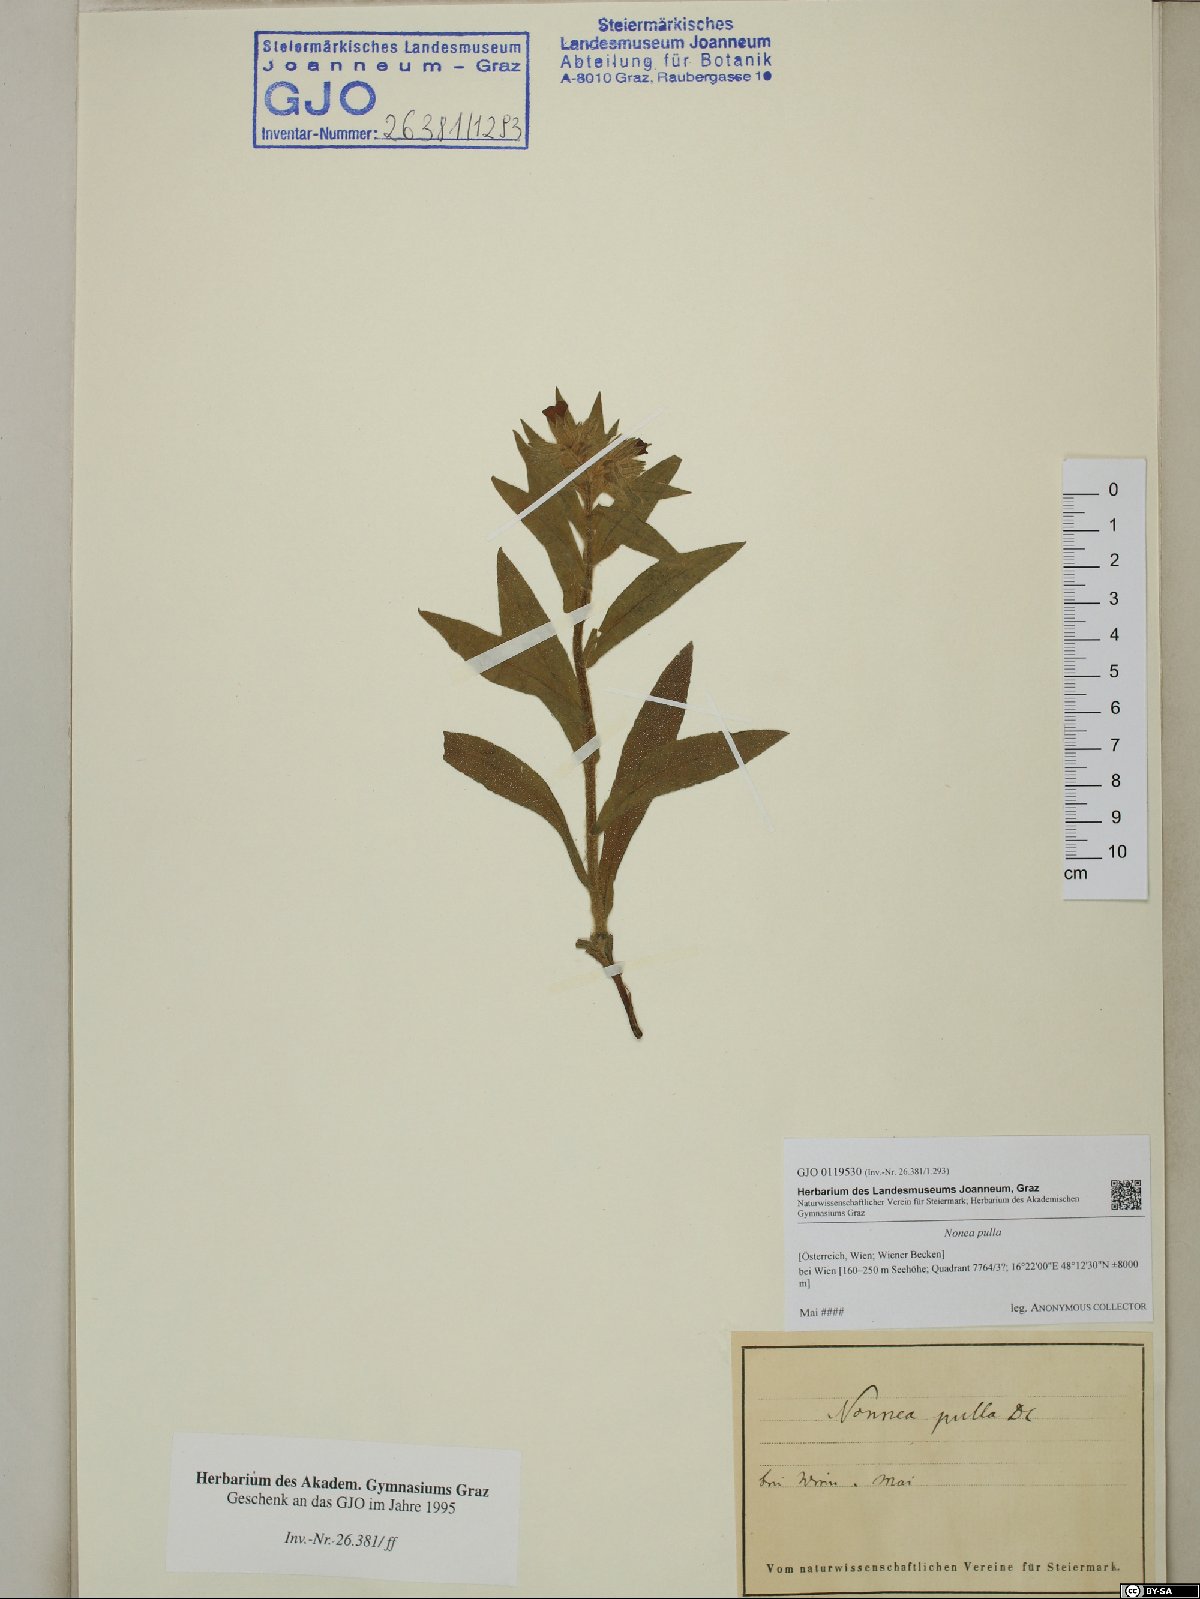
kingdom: Plantae
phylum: Tracheophyta
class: Magnoliopsida
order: Boraginales
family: Boraginaceae
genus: Nonea
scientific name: Nonea pulla
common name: Brown nonea
